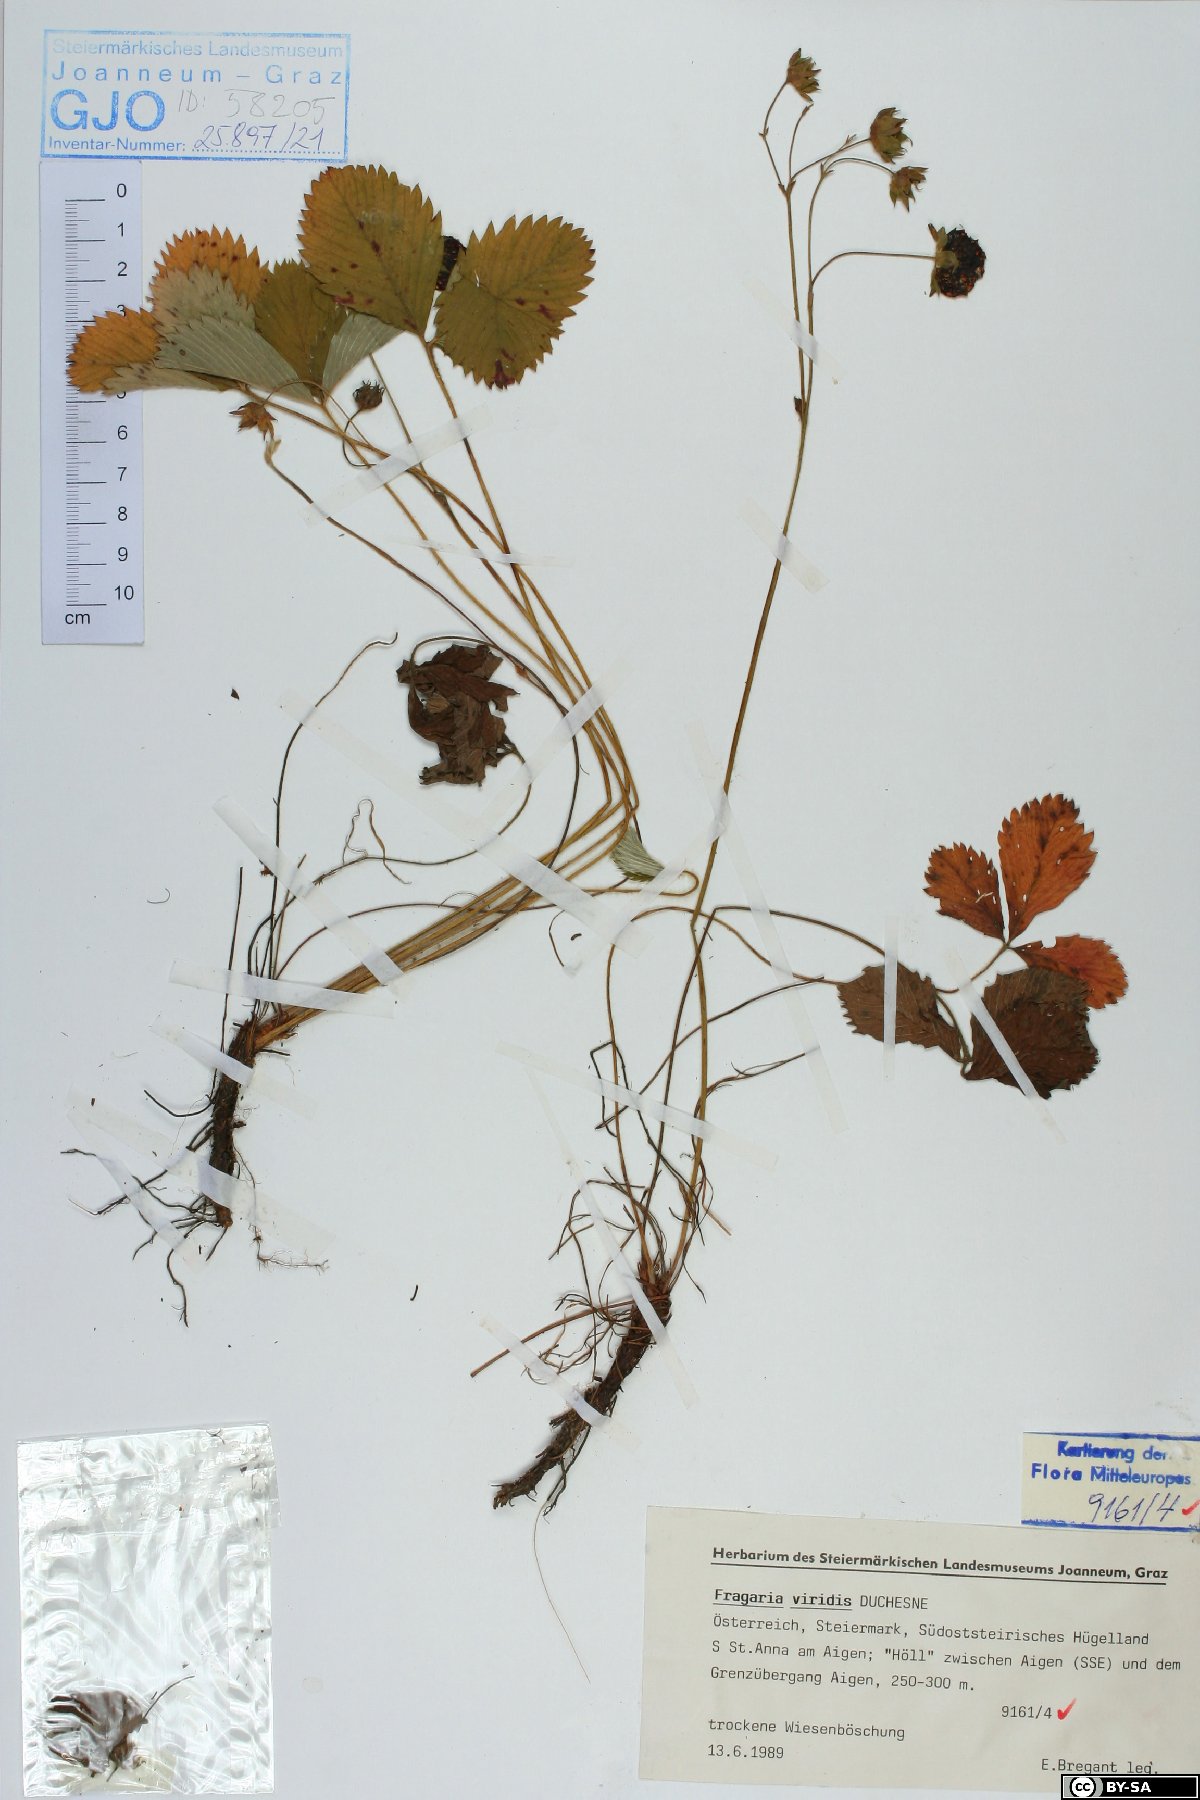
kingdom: Plantae
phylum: Tracheophyta
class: Magnoliopsida
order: Rosales
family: Rosaceae
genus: Fragaria
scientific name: Fragaria viridis
